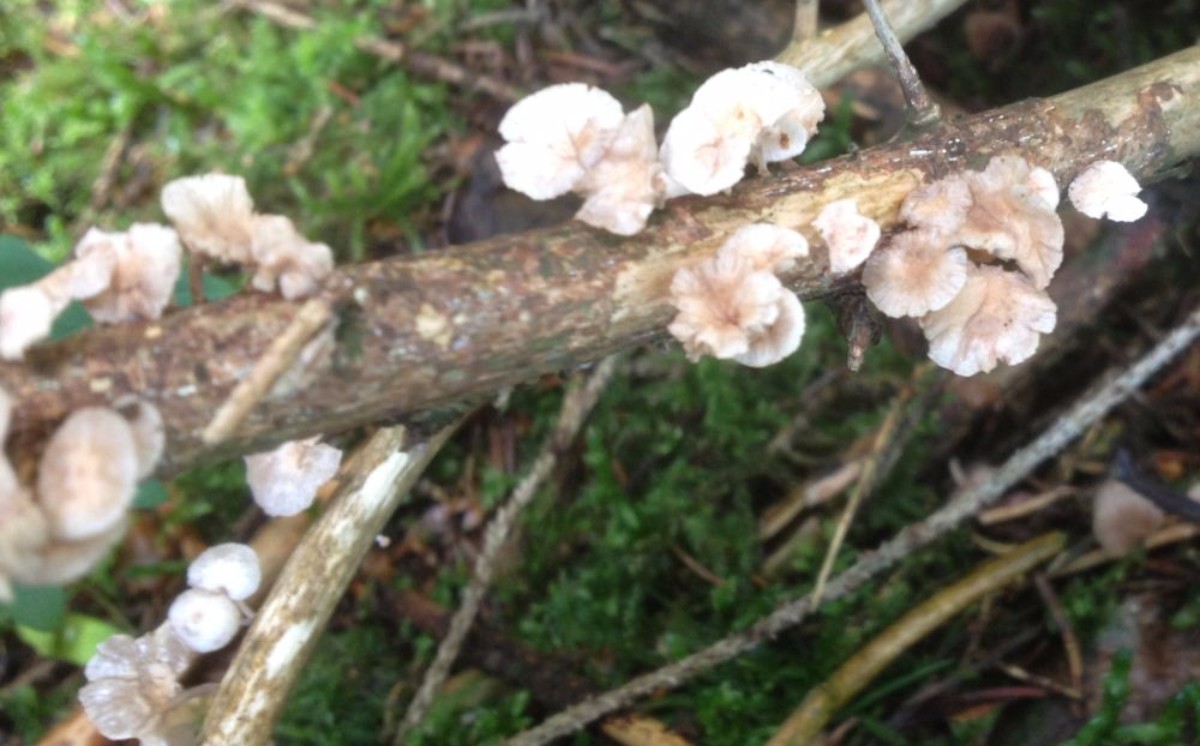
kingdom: Fungi
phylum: Basidiomycota
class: Agaricomycetes
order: Agaricales
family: Omphalotaceae
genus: Collybiopsis
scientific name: Collybiopsis ramealis
